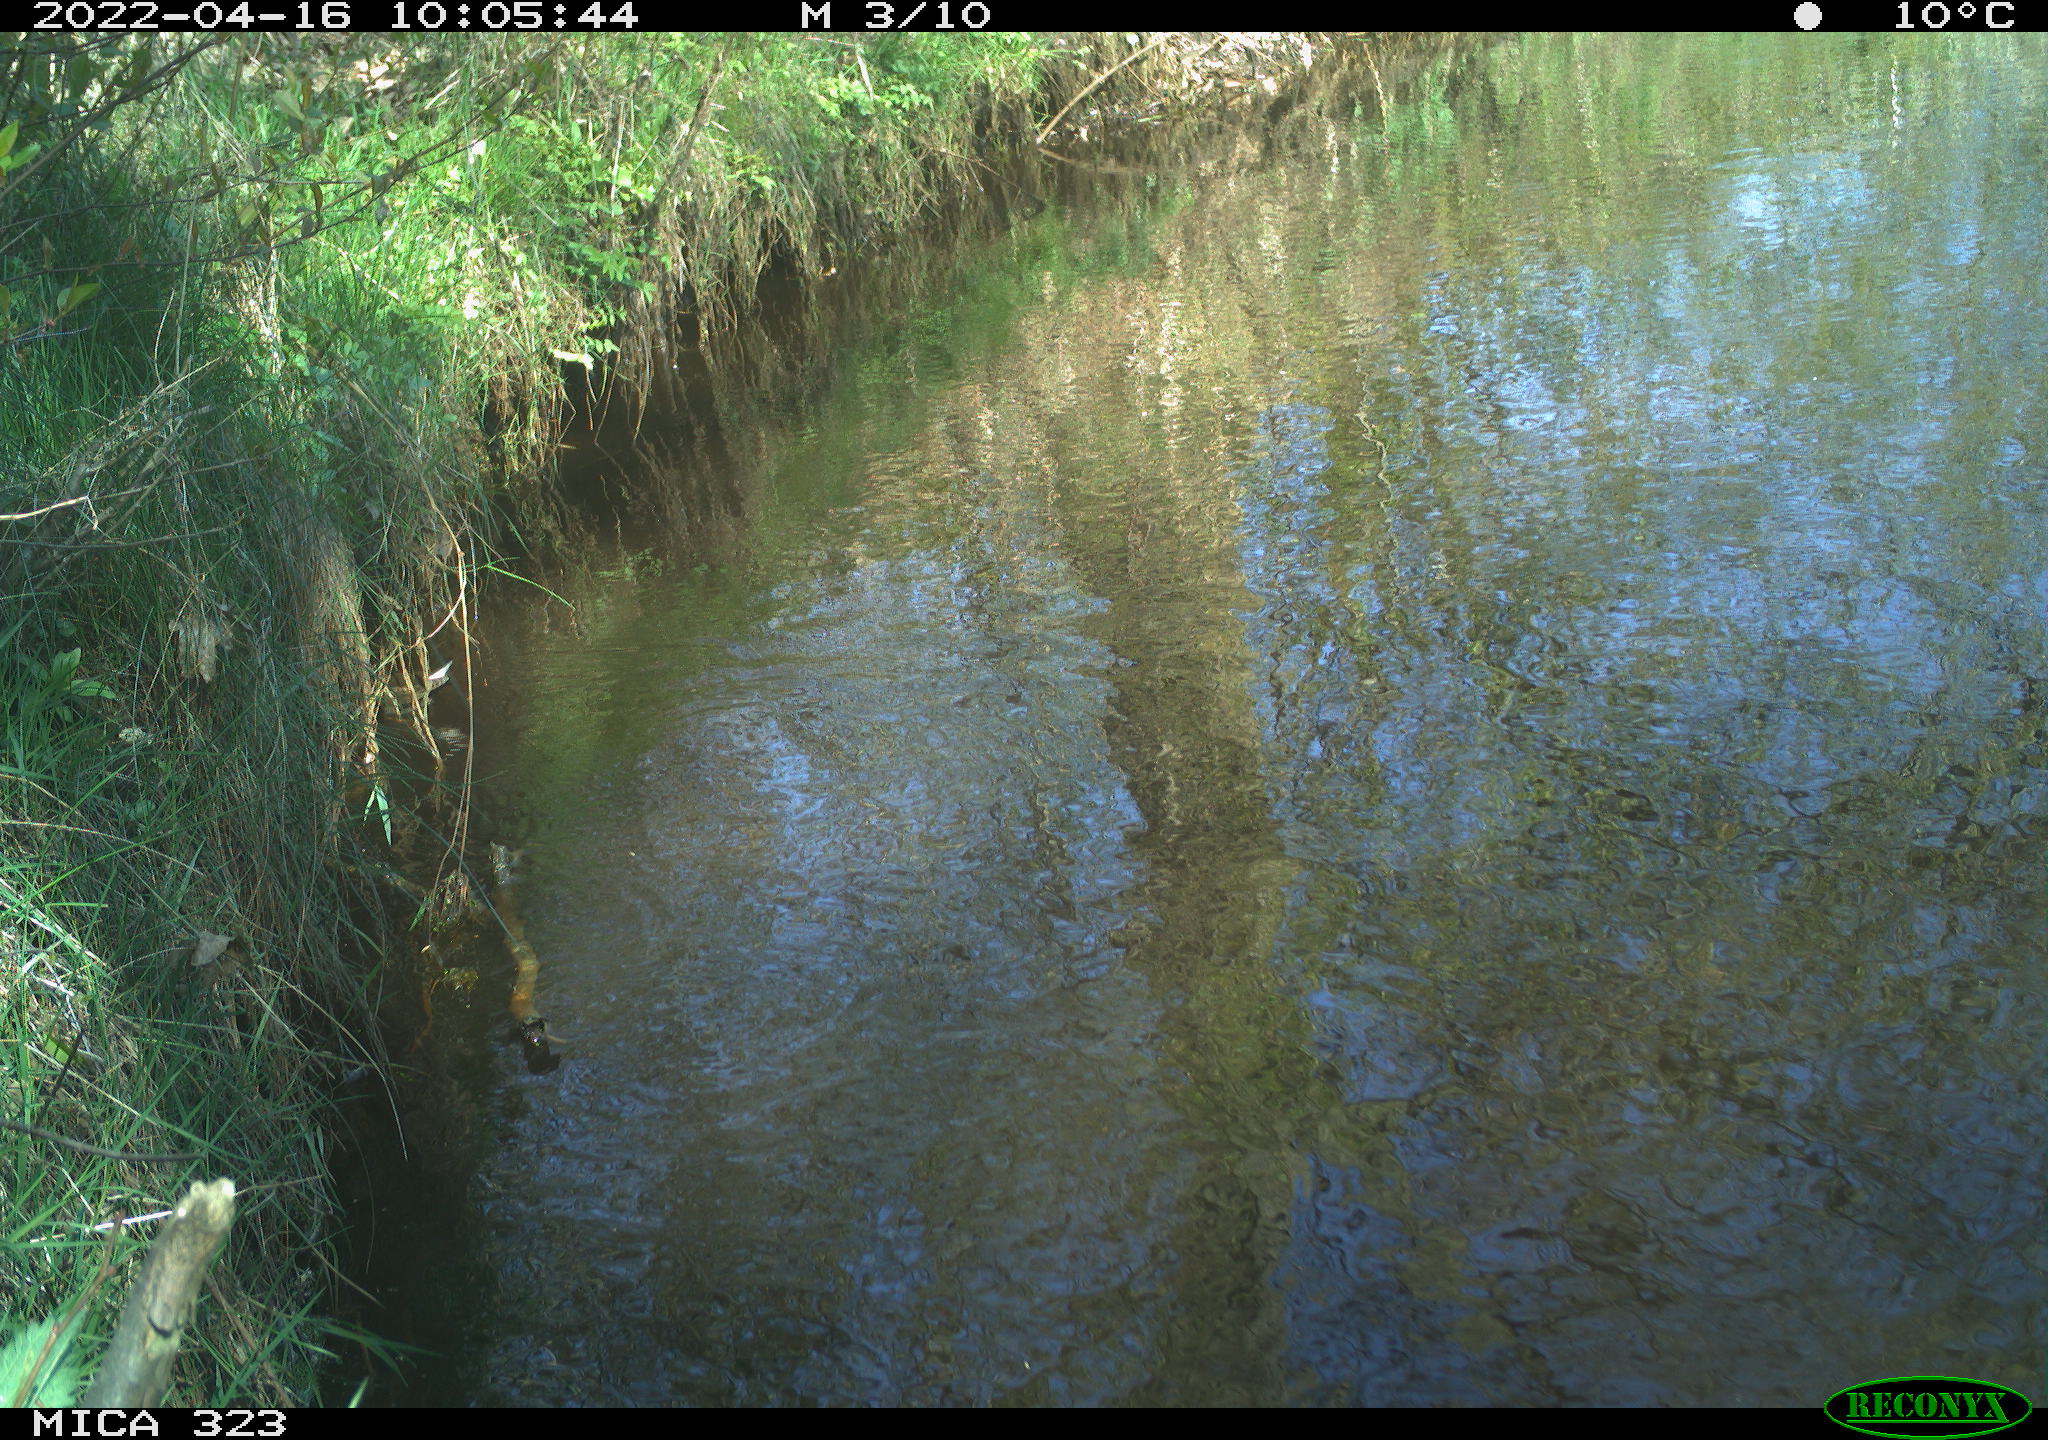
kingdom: Animalia
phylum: Chordata
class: Aves
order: Gruiformes
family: Rallidae
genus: Gallinula
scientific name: Gallinula chloropus
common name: Common moorhen
